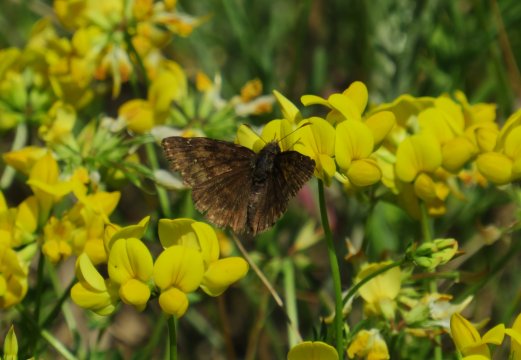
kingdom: Animalia
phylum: Arthropoda
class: Insecta
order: Lepidoptera
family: Hesperiidae
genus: Gesta
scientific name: Gesta
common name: Juvenal's Duskywing
